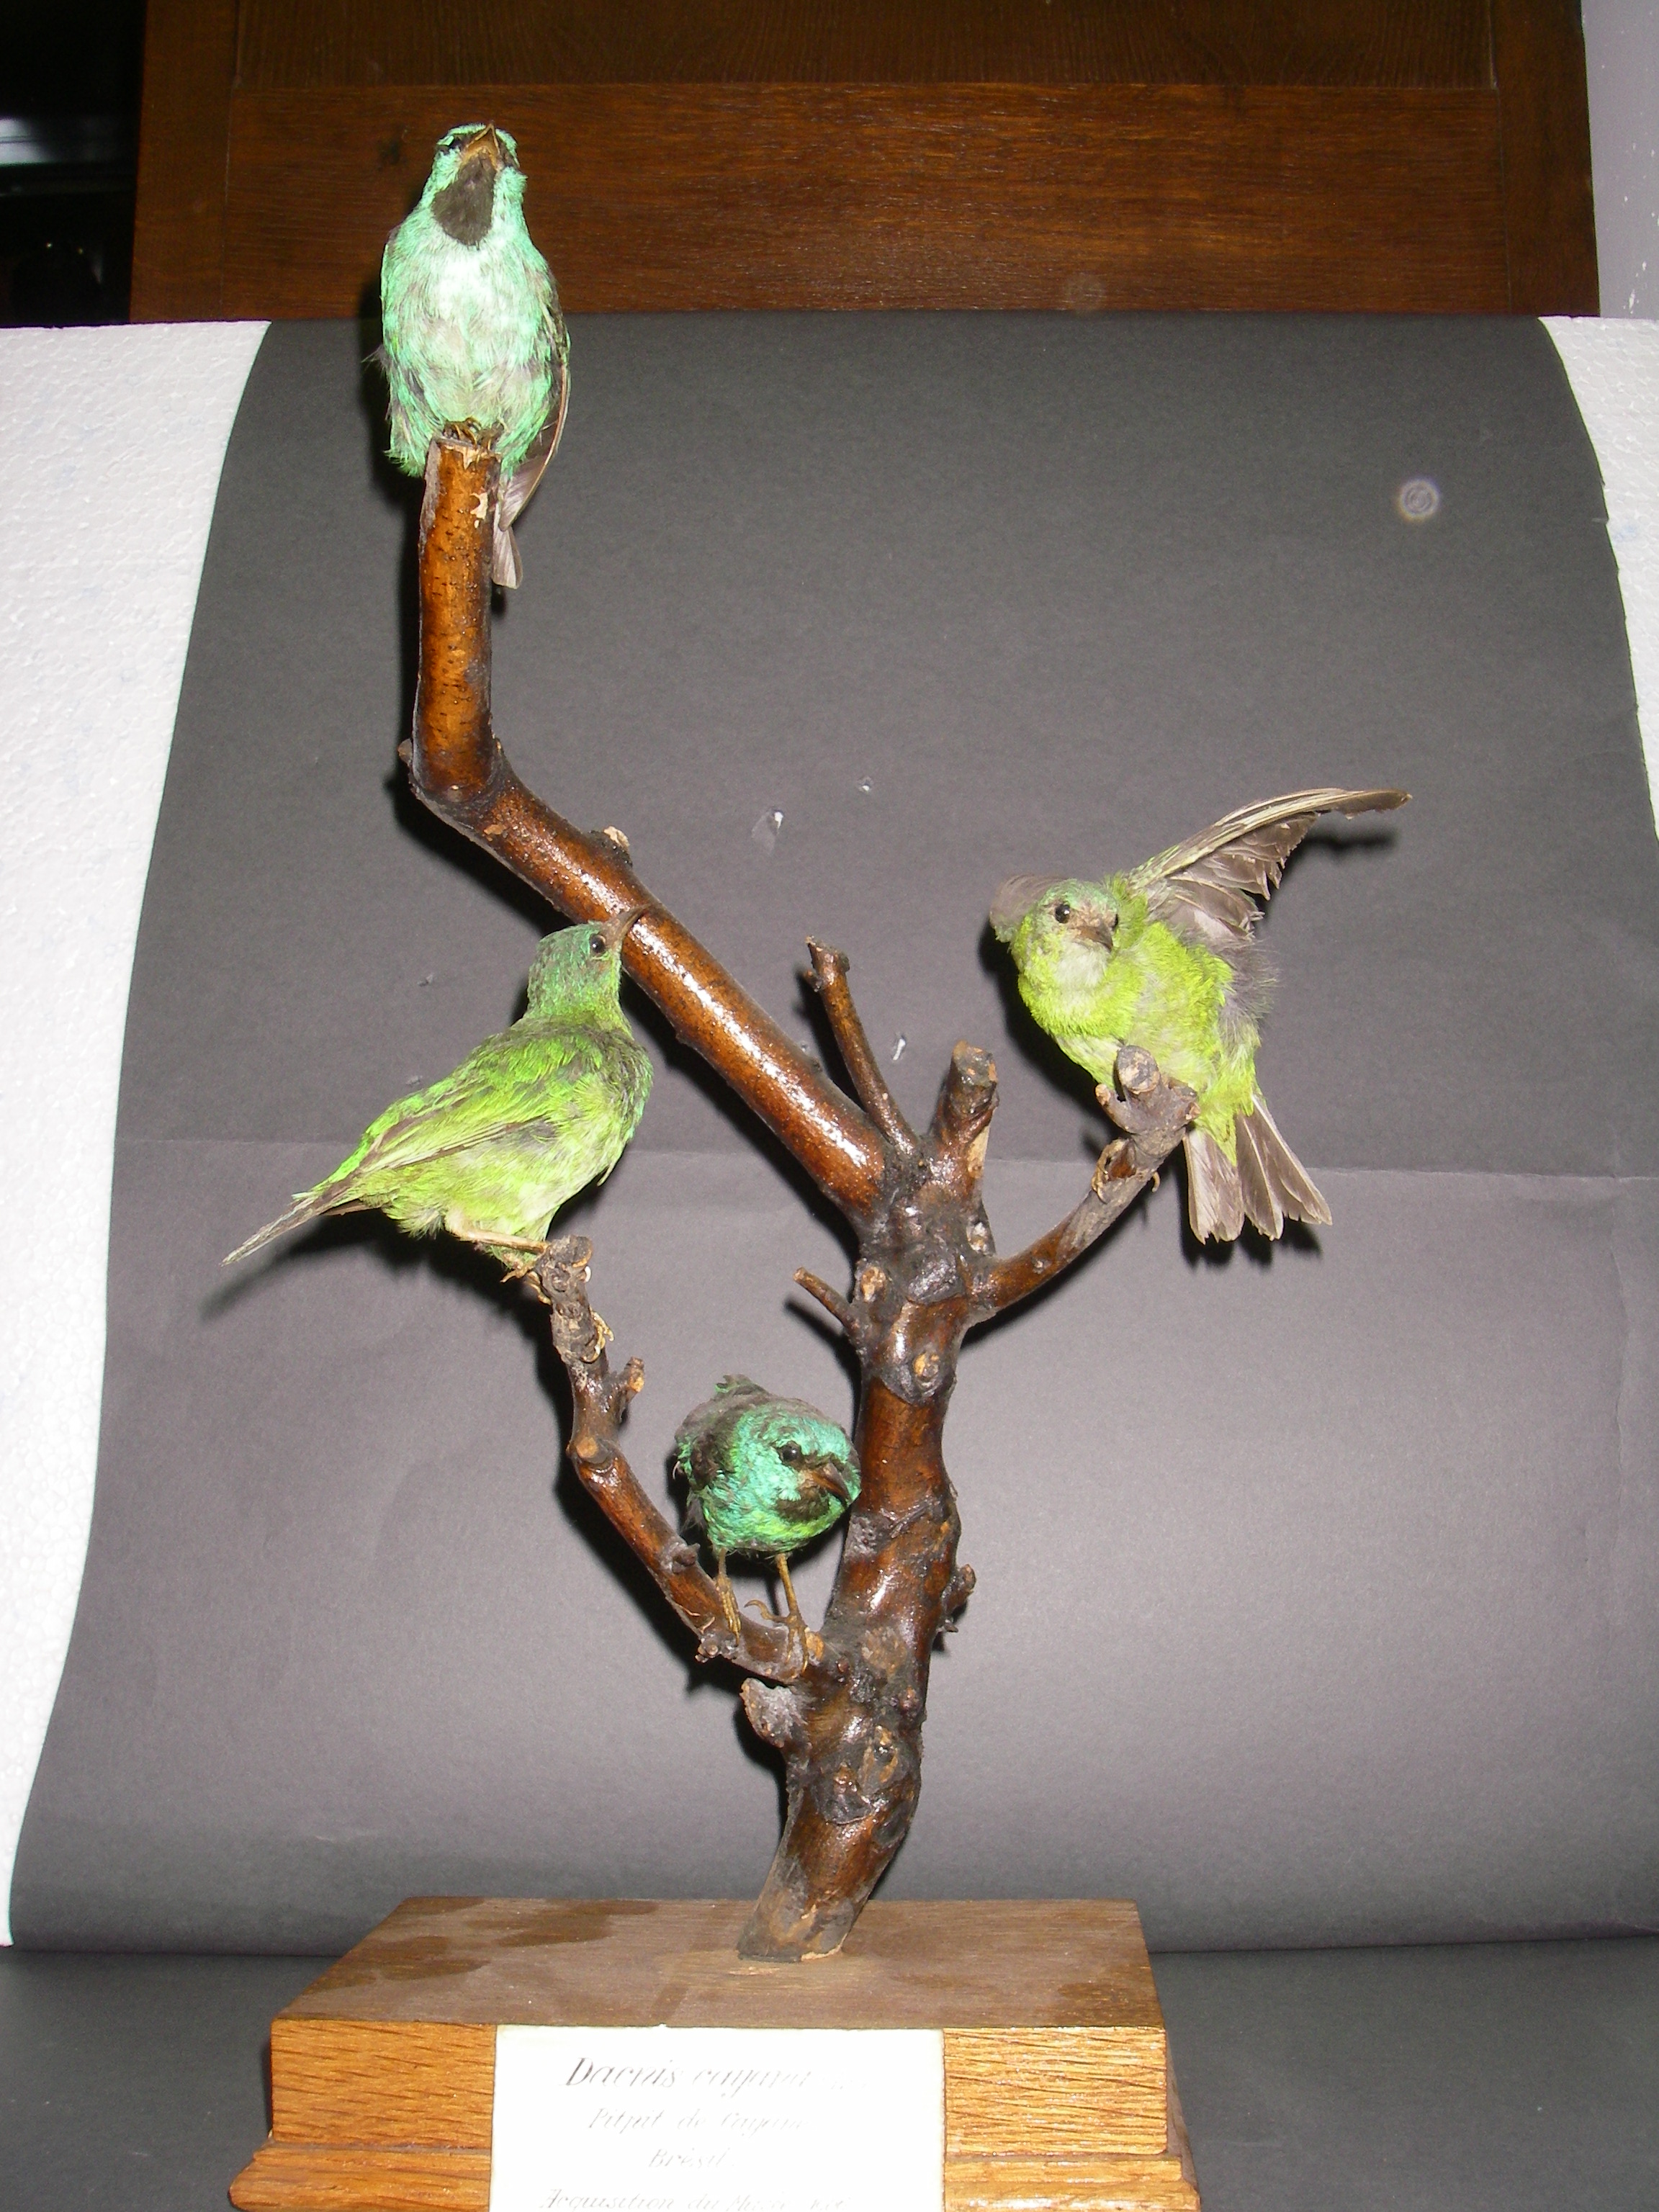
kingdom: Animalia
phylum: Chordata
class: Aves
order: Passeriformes
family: Thraupidae
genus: Dacnis
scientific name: Dacnis cayana
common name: Blue dacnis
